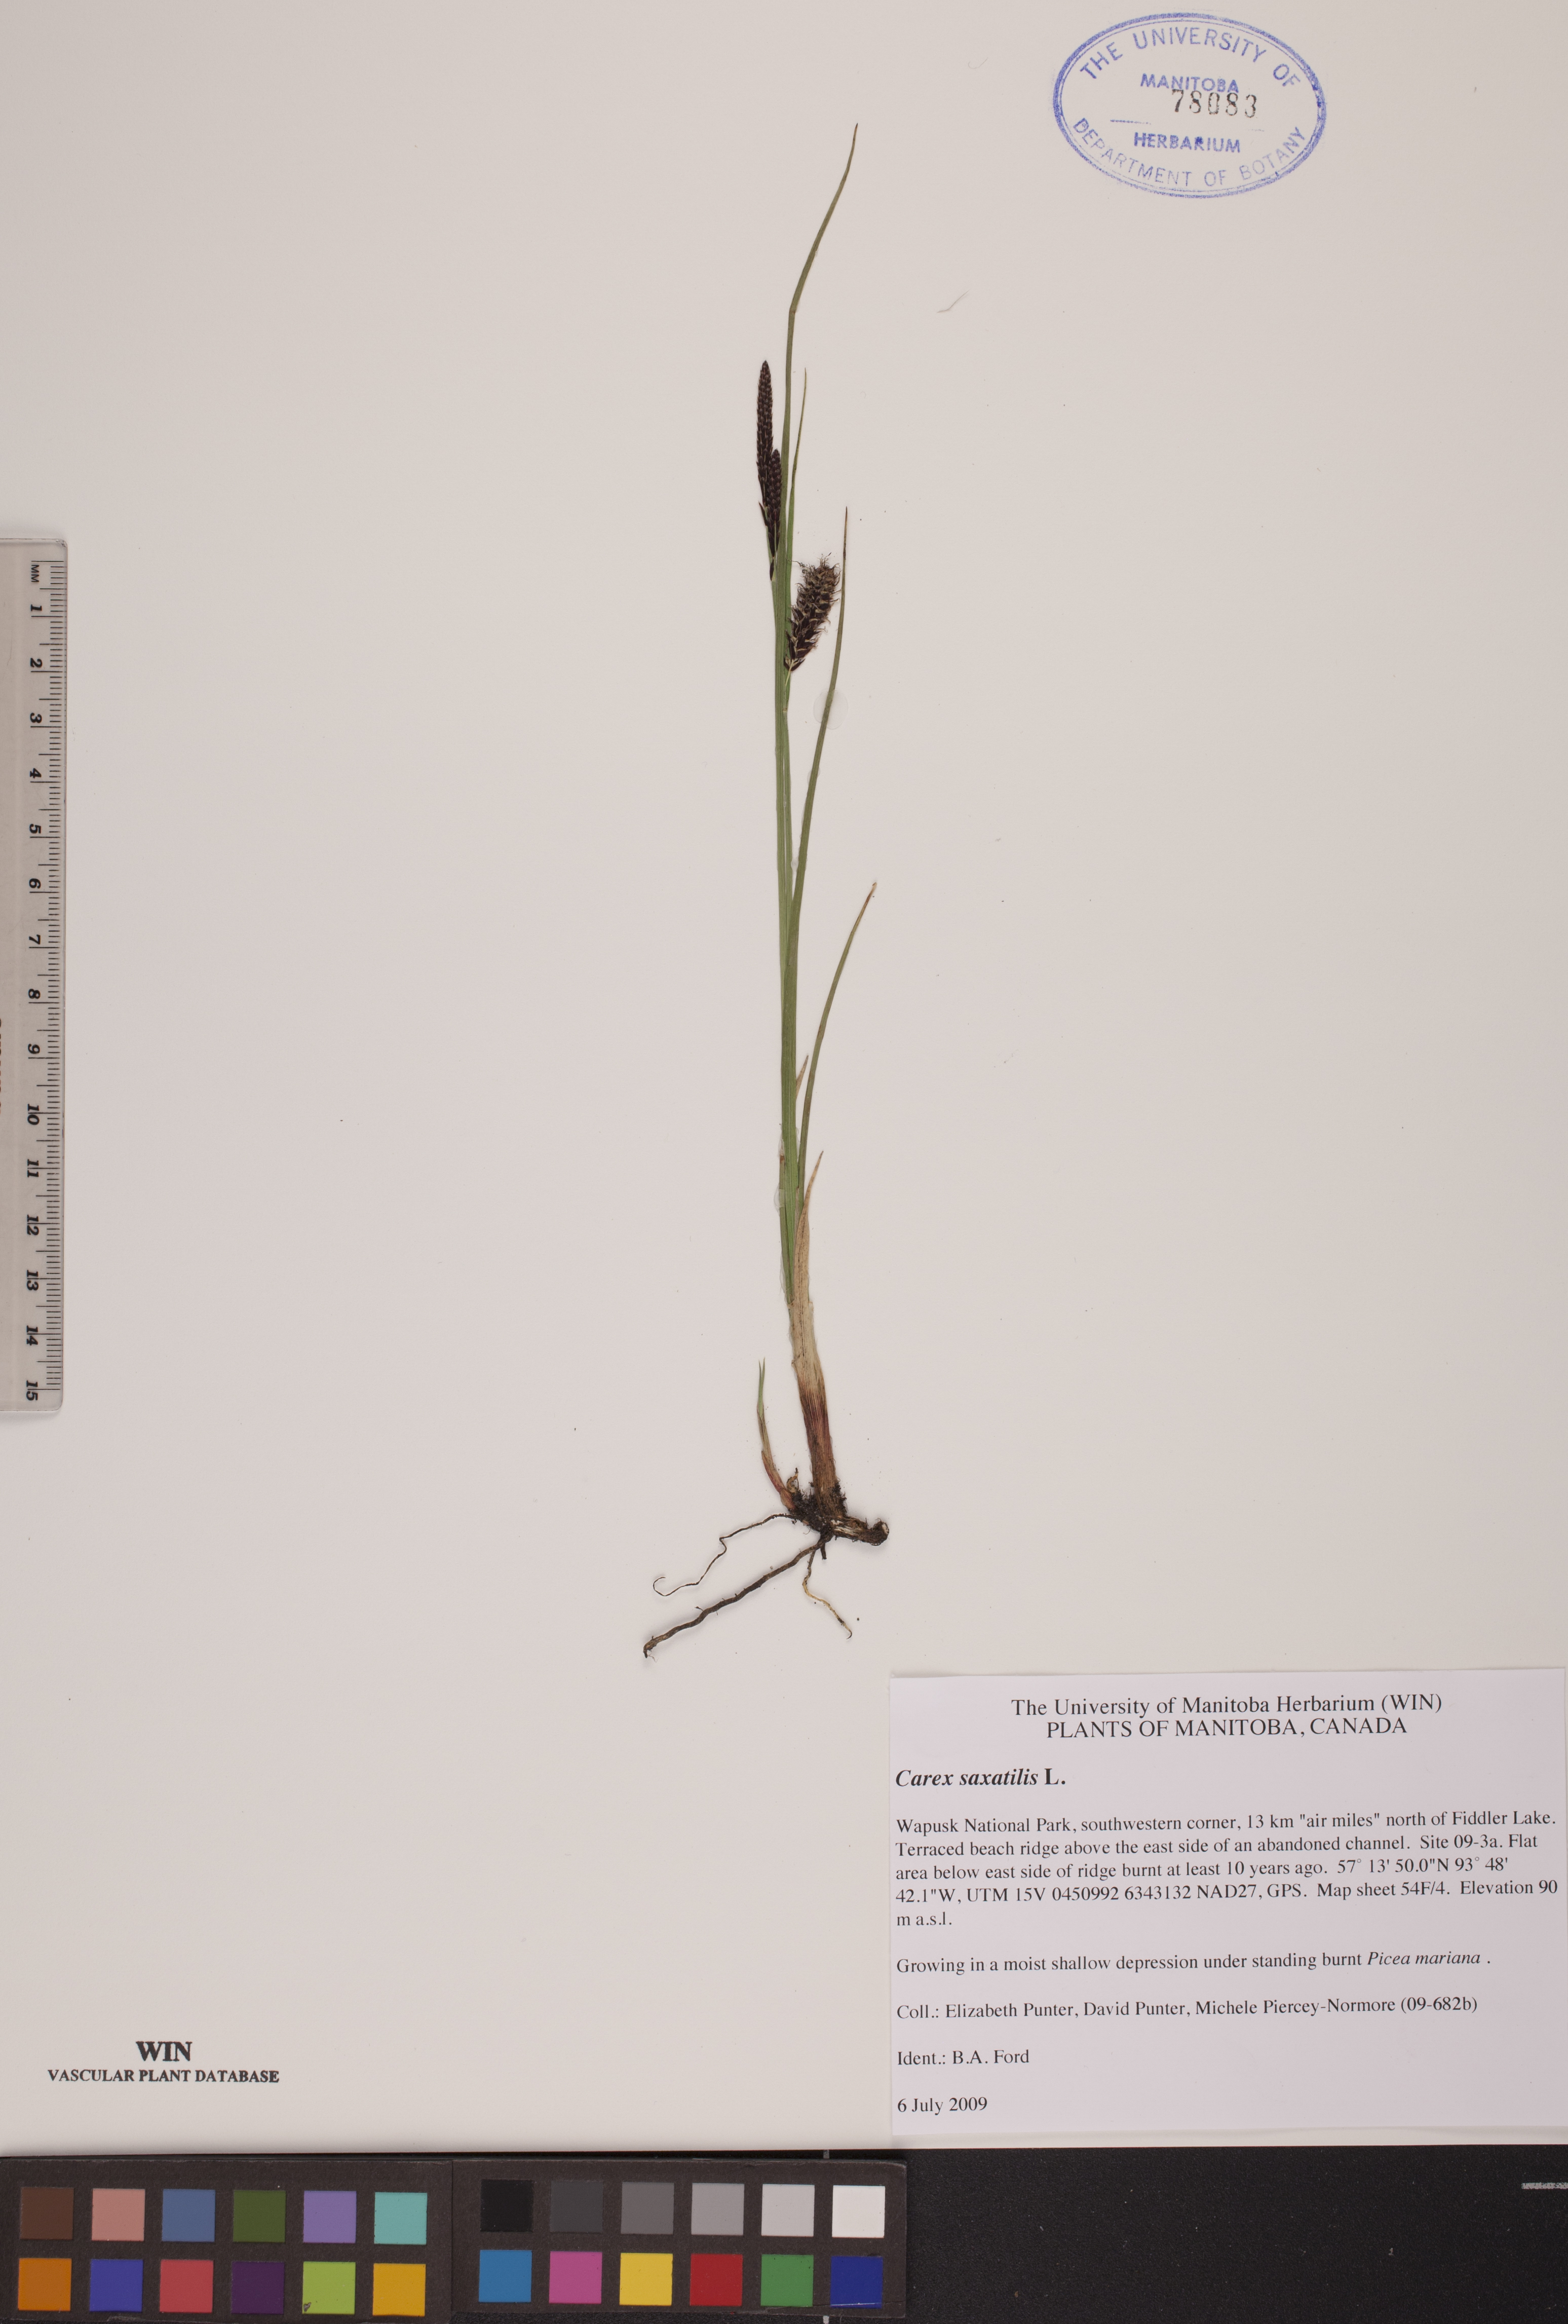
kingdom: Plantae
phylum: Tracheophyta
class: Liliopsida
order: Poales
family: Cyperaceae
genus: Carex
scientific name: Carex saxatilis
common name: Russet sedge
